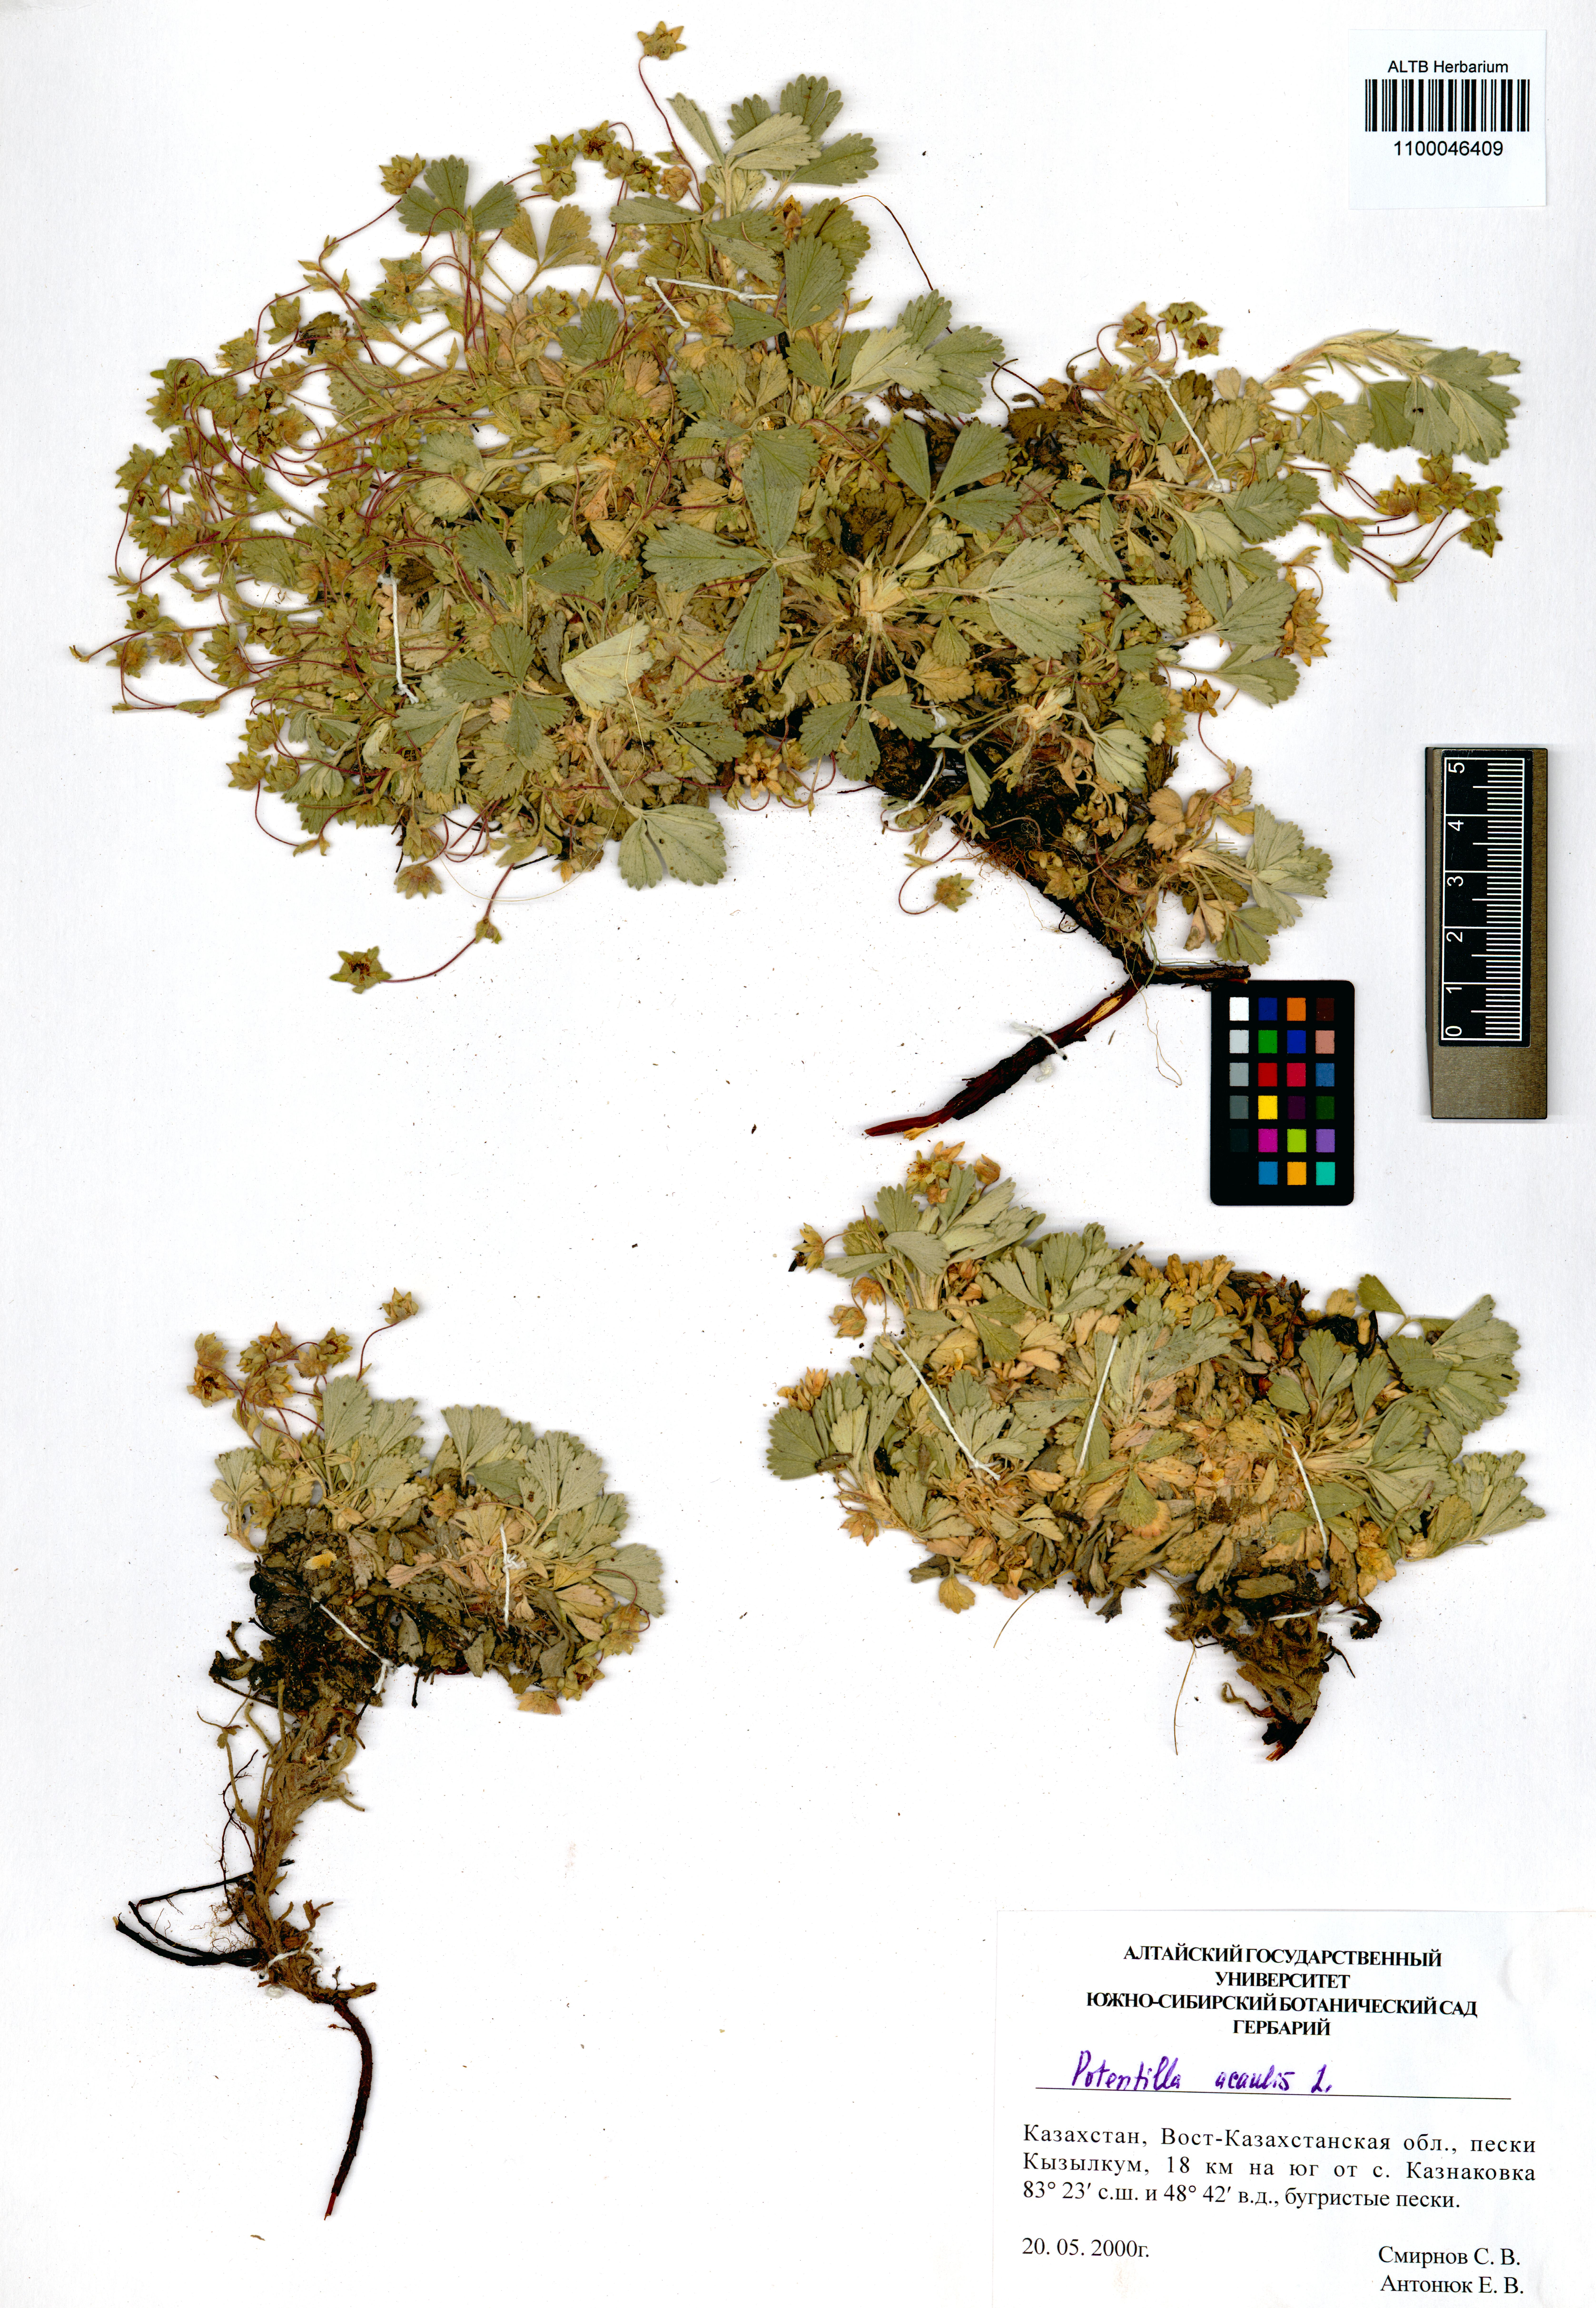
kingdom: Plantae
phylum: Tracheophyta
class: Magnoliopsida
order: Rosales
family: Rosaceae
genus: Potentilla
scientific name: Potentilla acaulis
